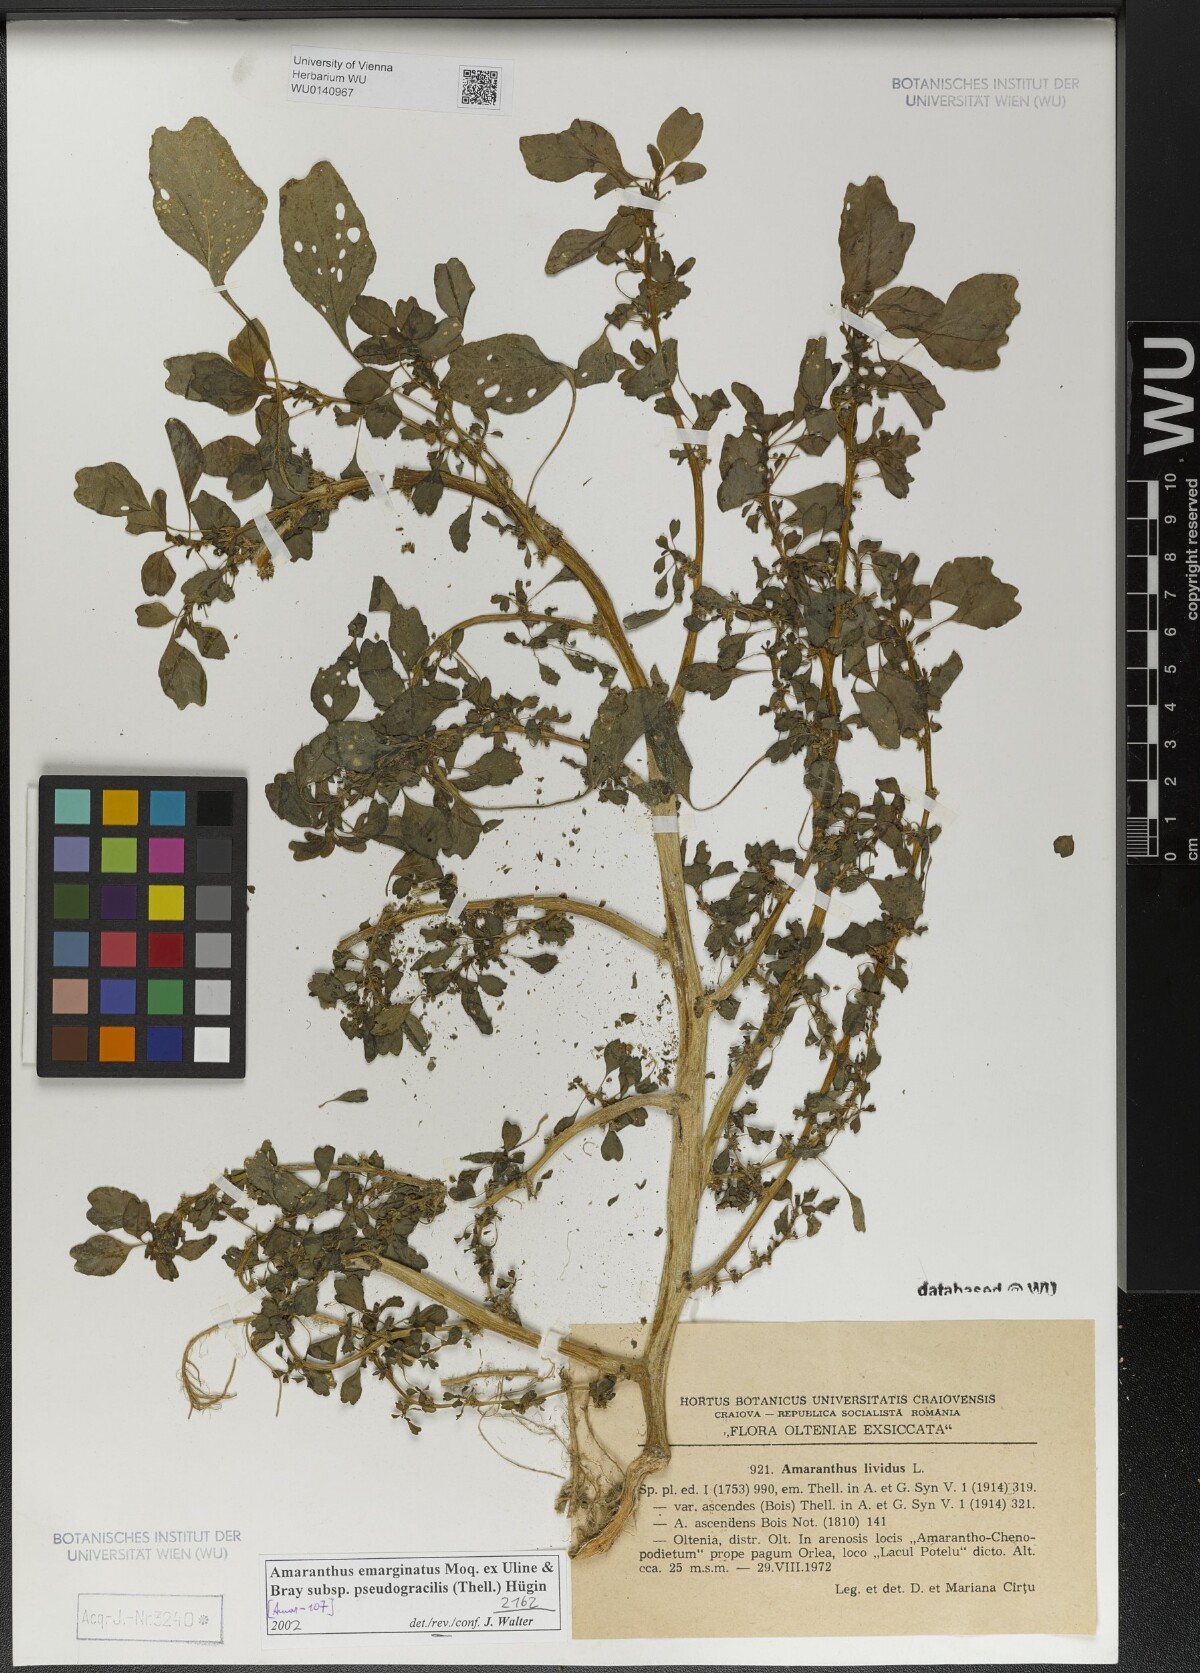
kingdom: Plantae
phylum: Tracheophyta
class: Magnoliopsida
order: Caryophyllales
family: Amaranthaceae
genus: Amaranthus
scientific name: Amaranthus emarginatus
